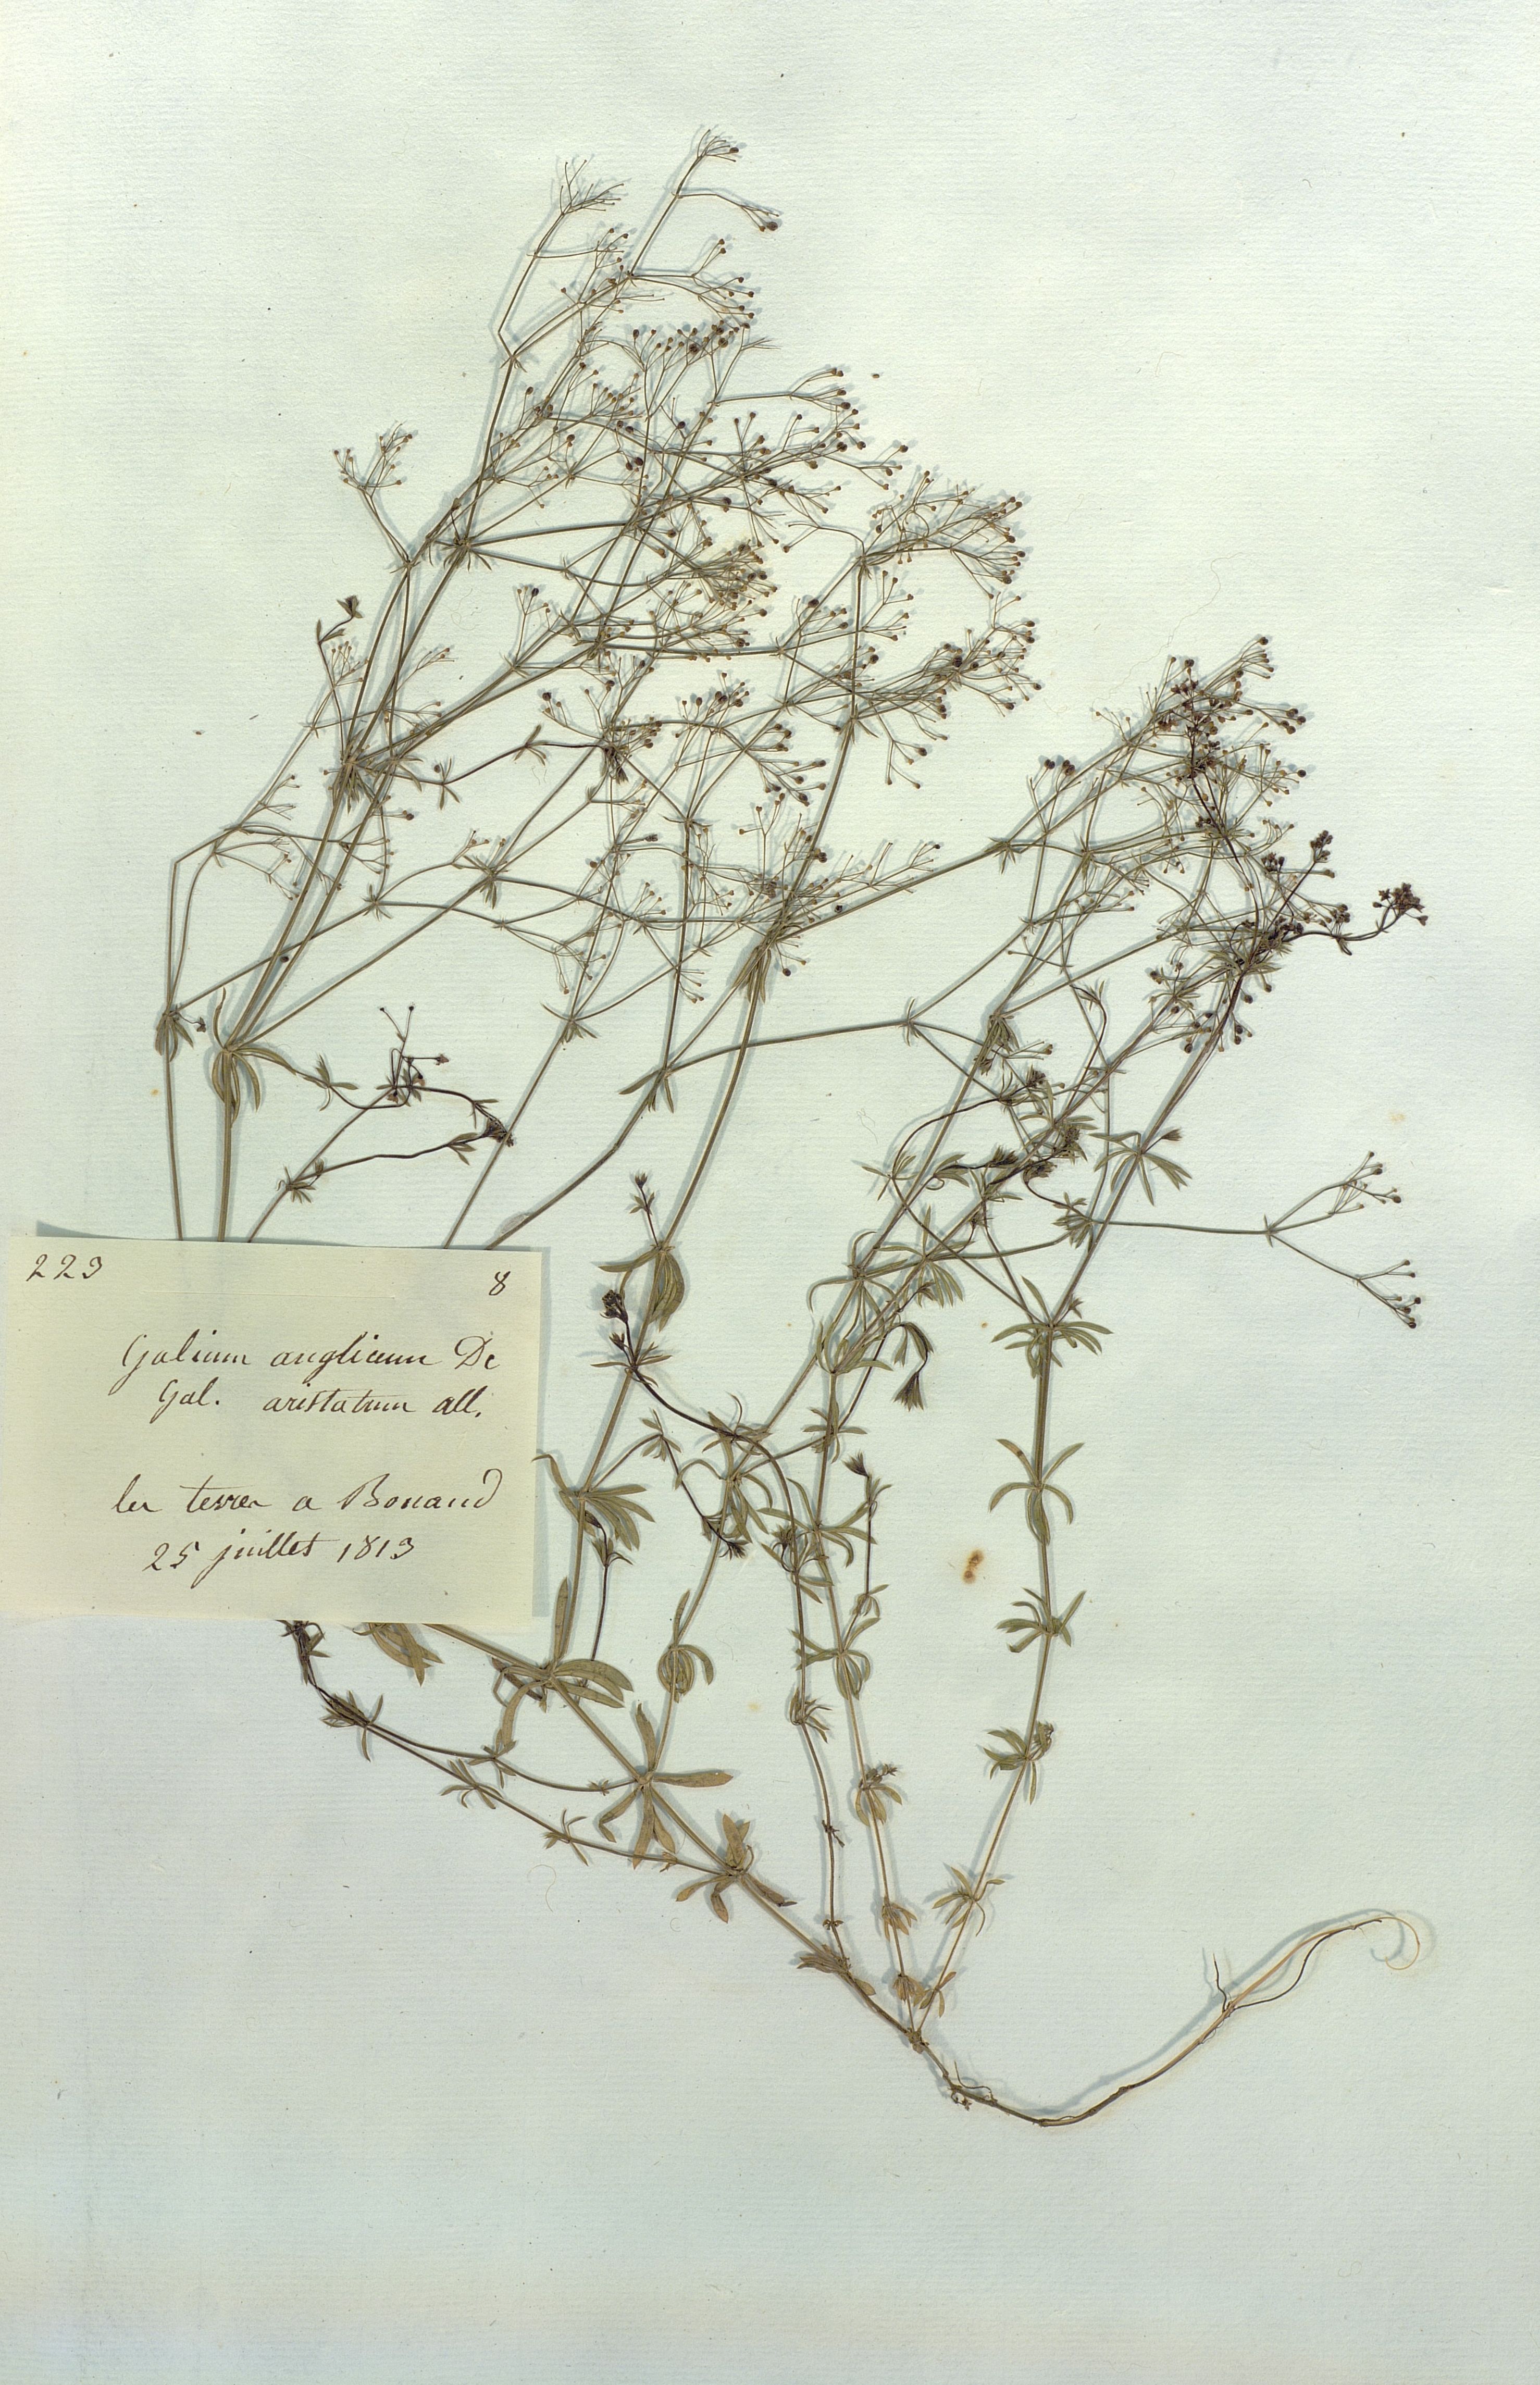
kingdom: Plantae
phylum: Tracheophyta
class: Magnoliopsida
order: Gentianales
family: Rubiaceae
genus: Galium
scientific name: Galium anglicum
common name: English bedstraw
